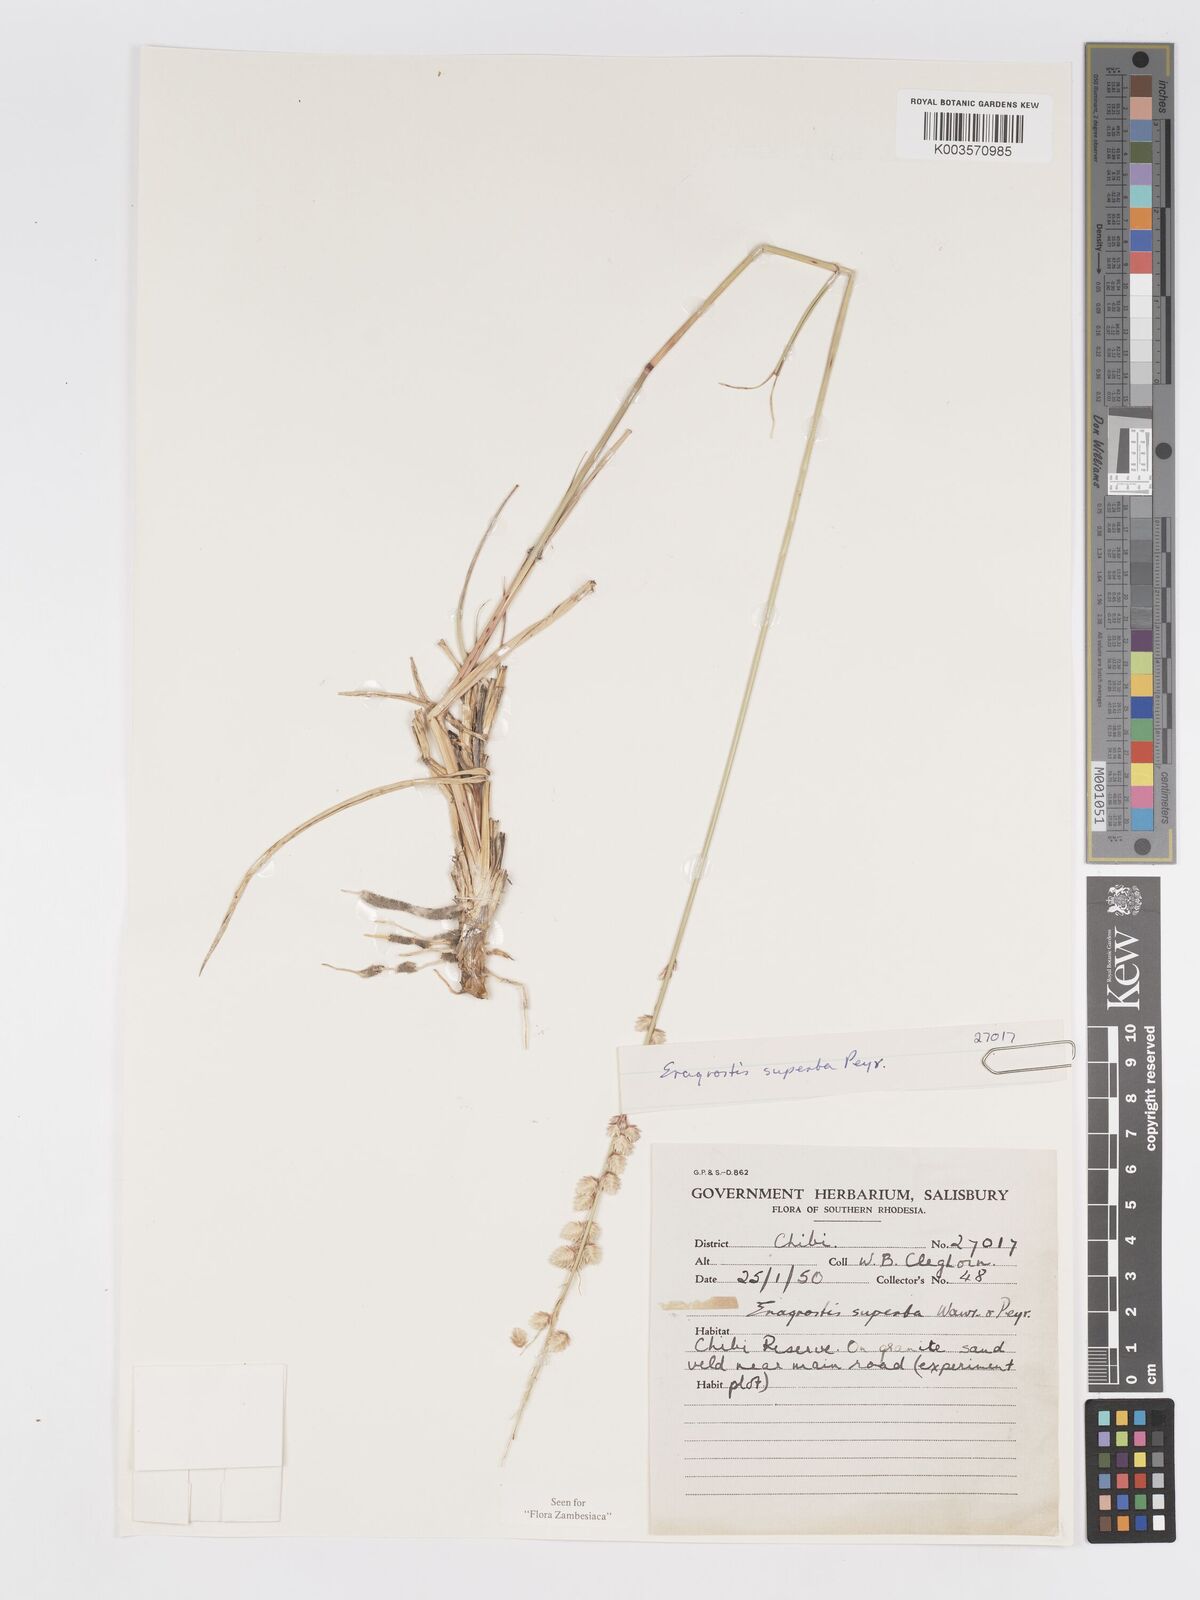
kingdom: Plantae
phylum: Tracheophyta
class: Liliopsida
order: Poales
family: Poaceae
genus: Eragrostis
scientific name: Eragrostis superba
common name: Wilman lovegrass
